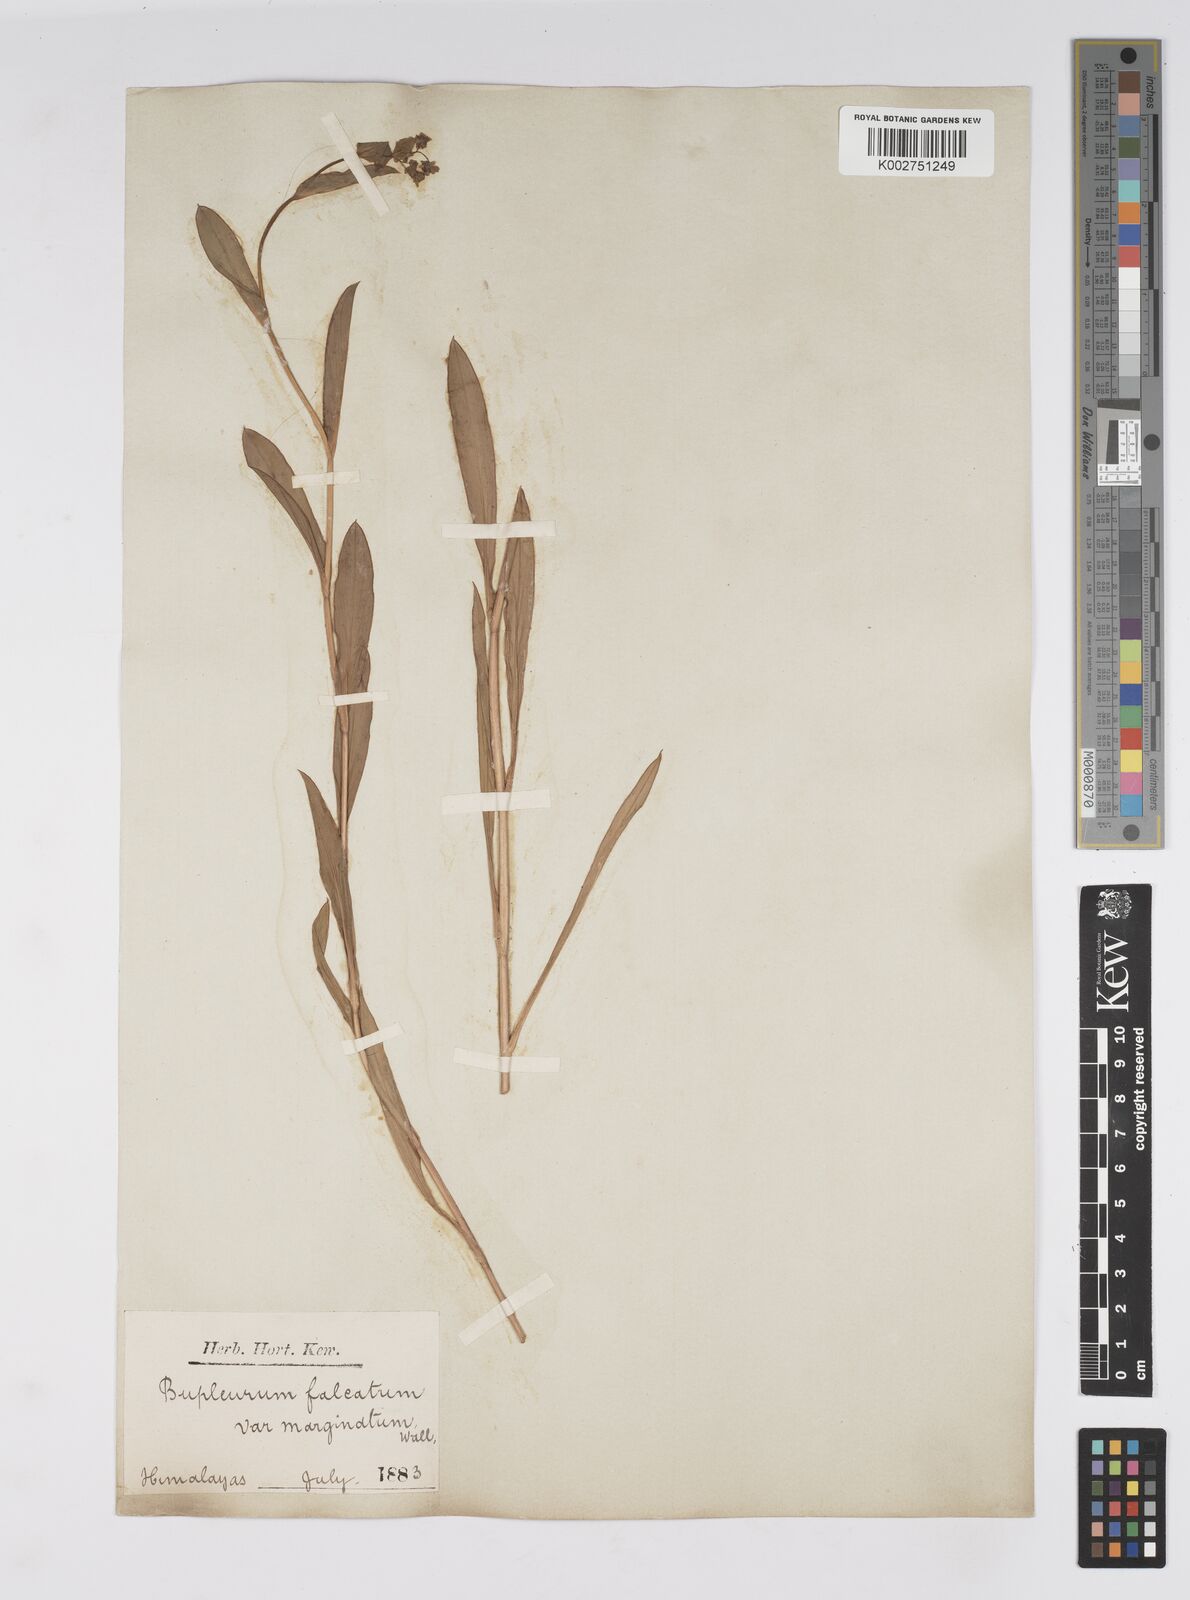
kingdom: Plantae
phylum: Tracheophyta
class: Magnoliopsida
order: Apiales
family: Apiaceae
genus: Bupleurum
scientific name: Bupleurum falcatum
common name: Sickle-leaved hare's-ear
